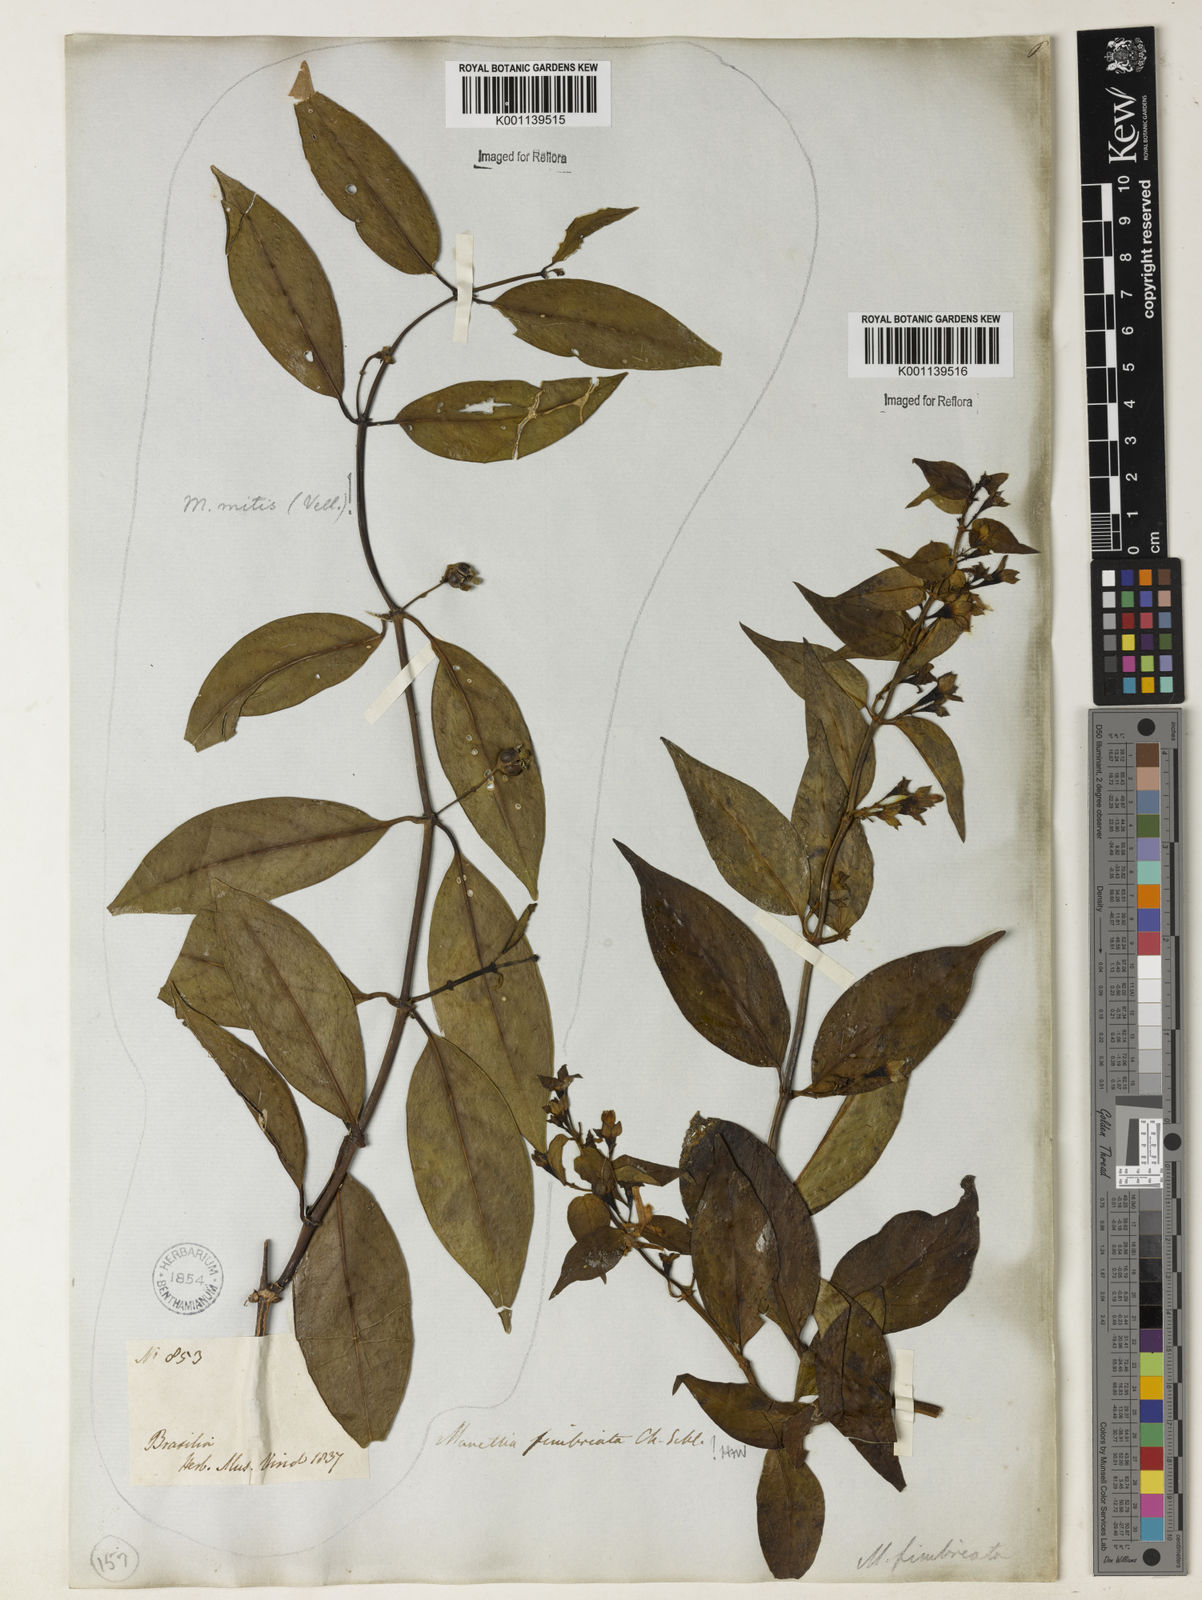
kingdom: Plantae
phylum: Tracheophyta
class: Magnoliopsida
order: Gentianales
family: Rubiaceae
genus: Manettia
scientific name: Manettia fimbriata
